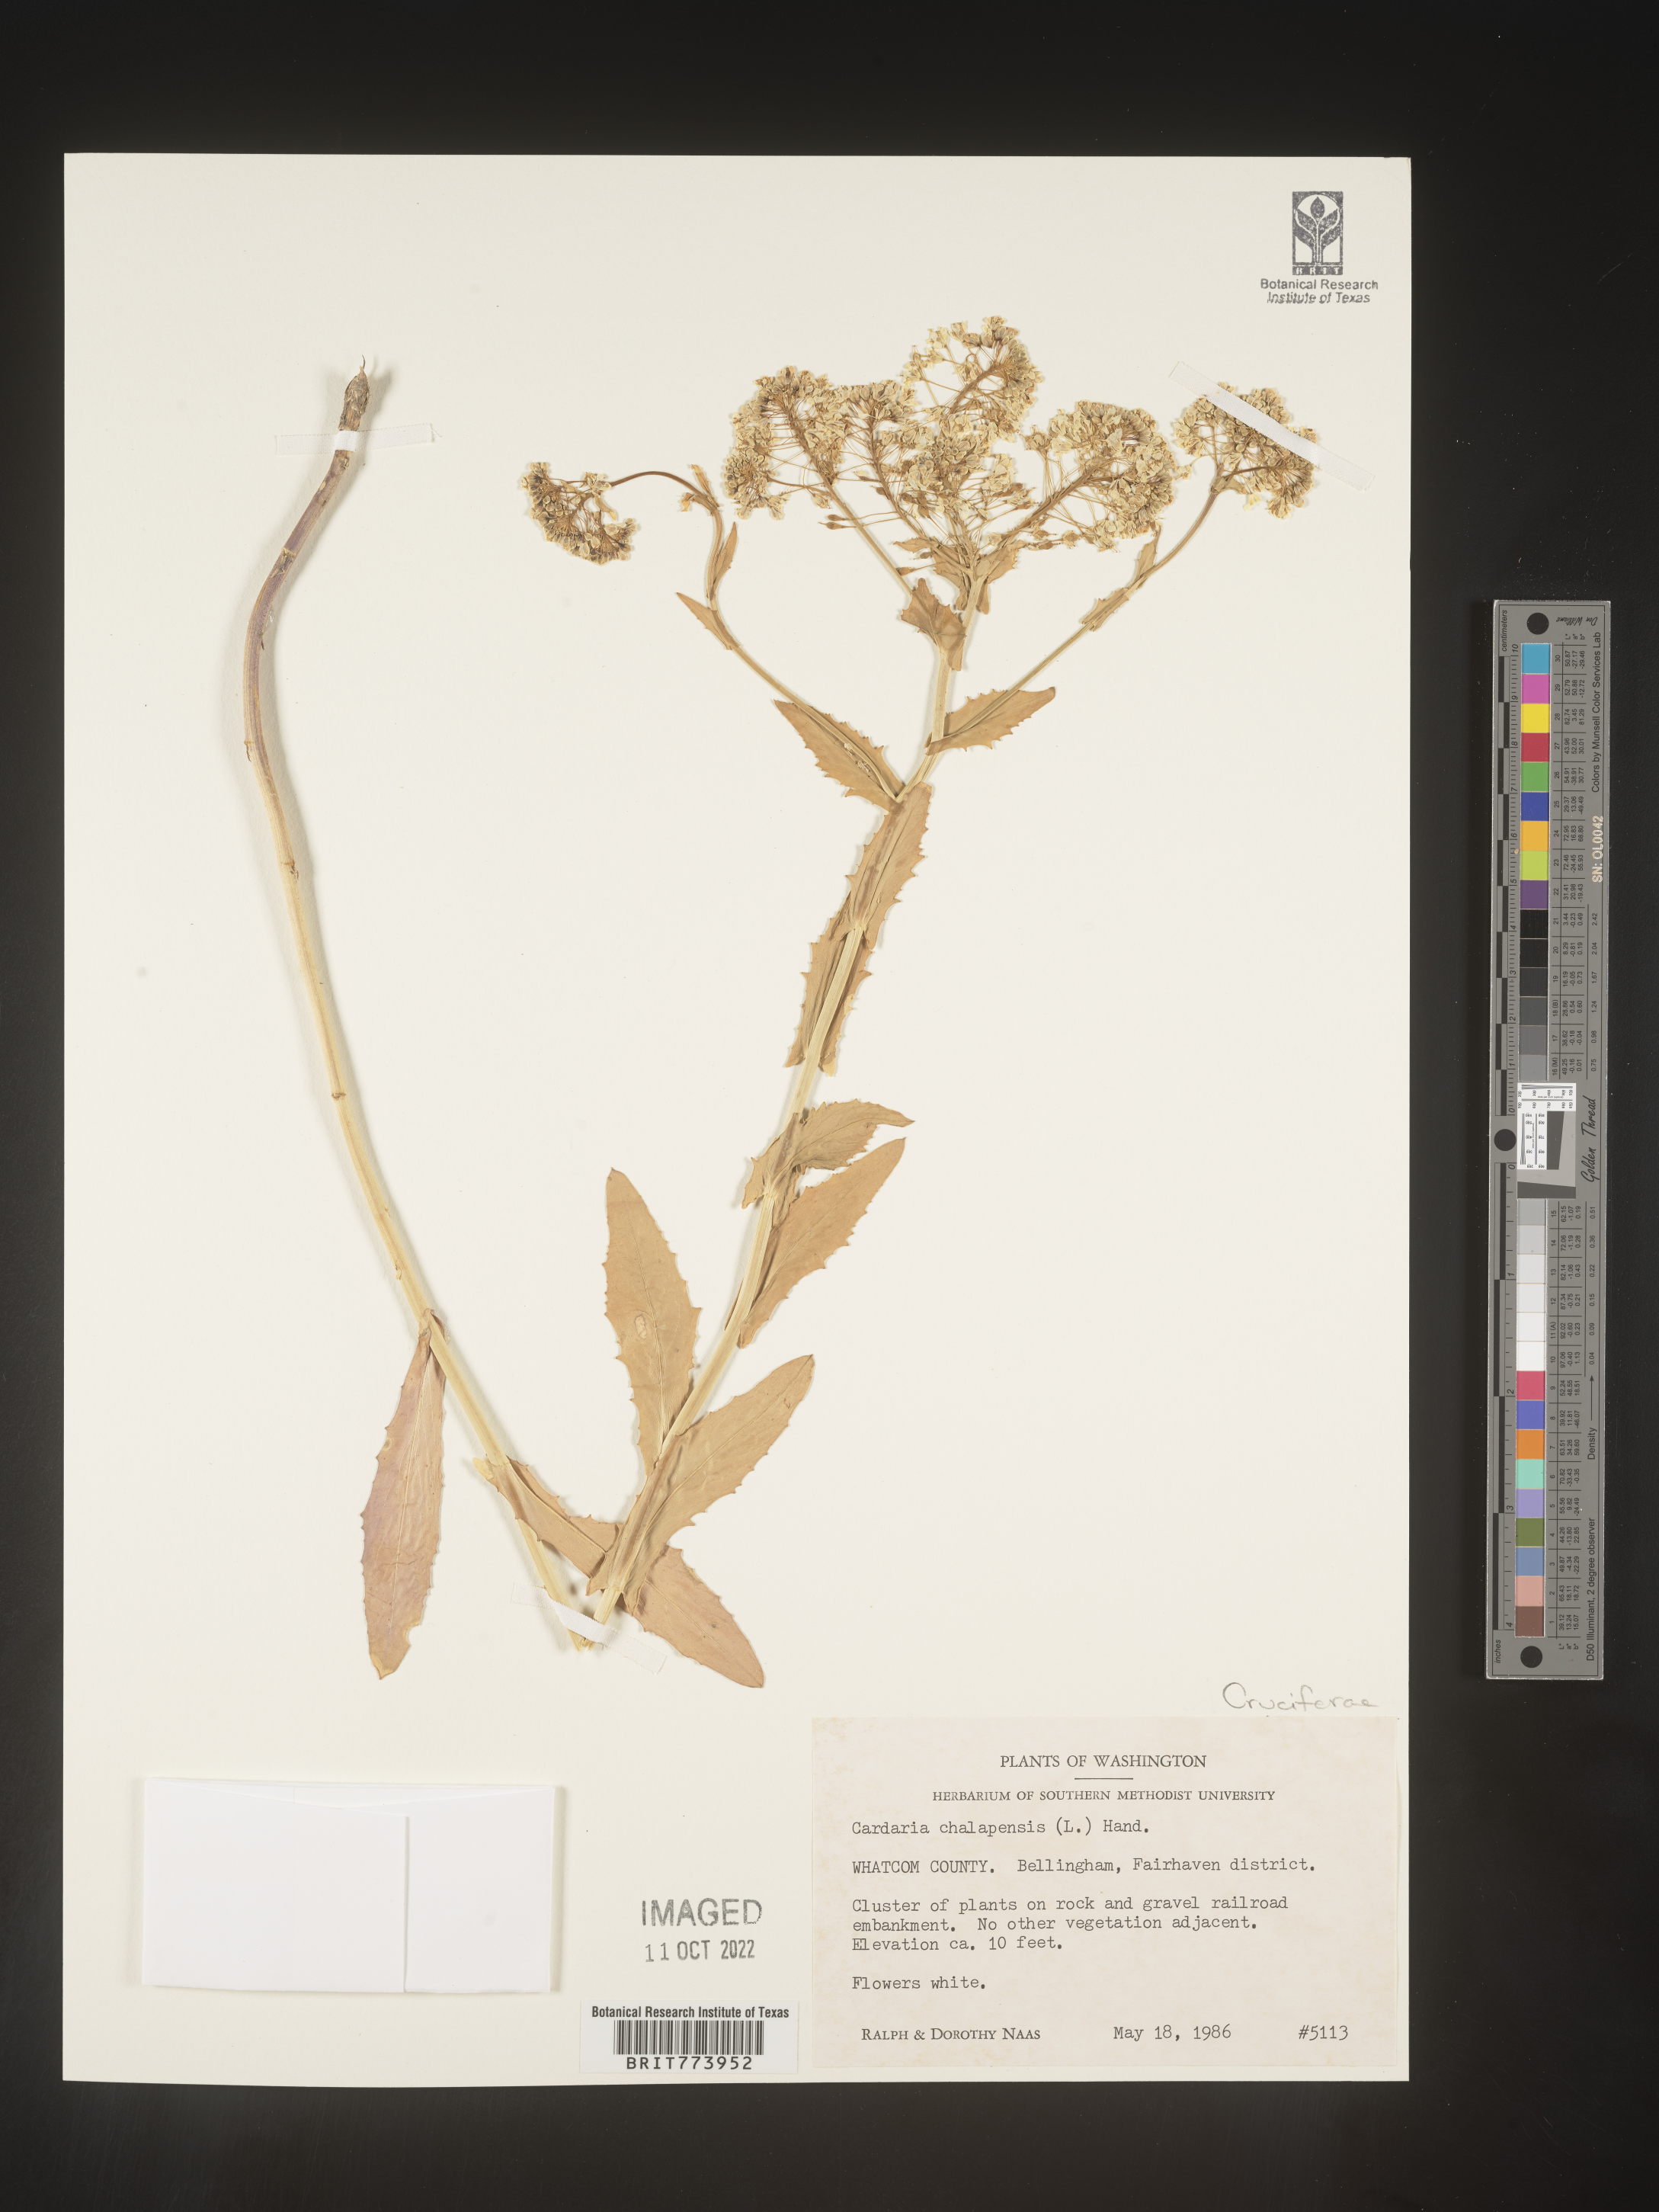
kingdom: Plantae
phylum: Tracheophyta
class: Magnoliopsida
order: Brassicales
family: Brassicaceae
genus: Lepidium
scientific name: Lepidium draba
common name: Hoary cress
